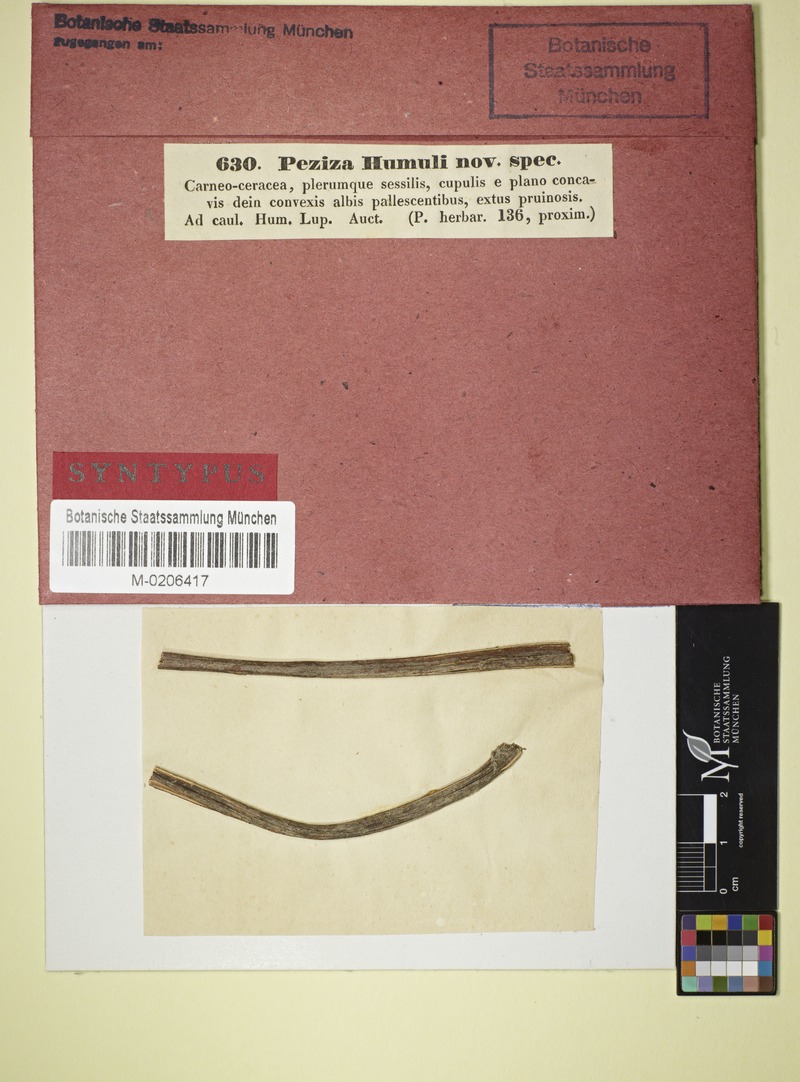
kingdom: Fungi
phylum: Ascomycota
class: Leotiomycetes
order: Helotiales
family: Helotiaceae
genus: Hymenoscyphus
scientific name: Hymenoscyphus humuli
